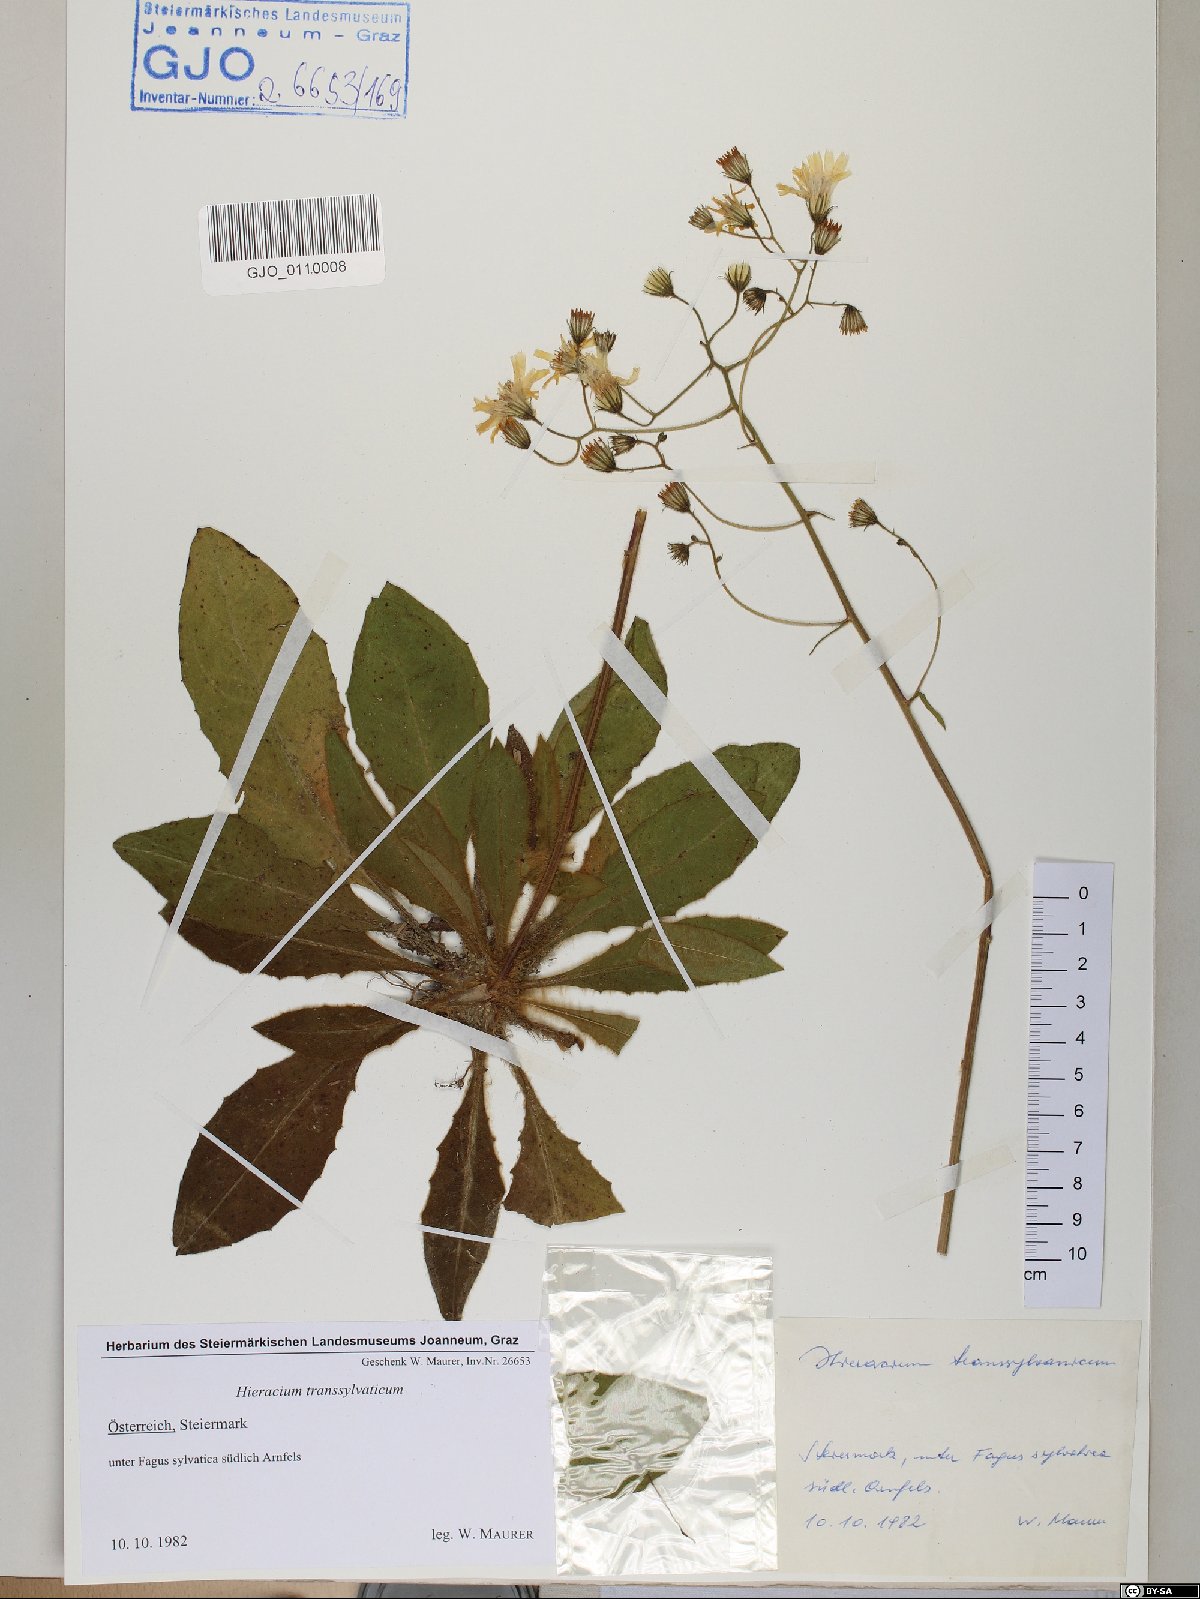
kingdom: Plantae
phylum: Tracheophyta
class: Magnoliopsida
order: Asterales
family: Asteraceae
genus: Hieracium
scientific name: Hieracium transylvanicum
